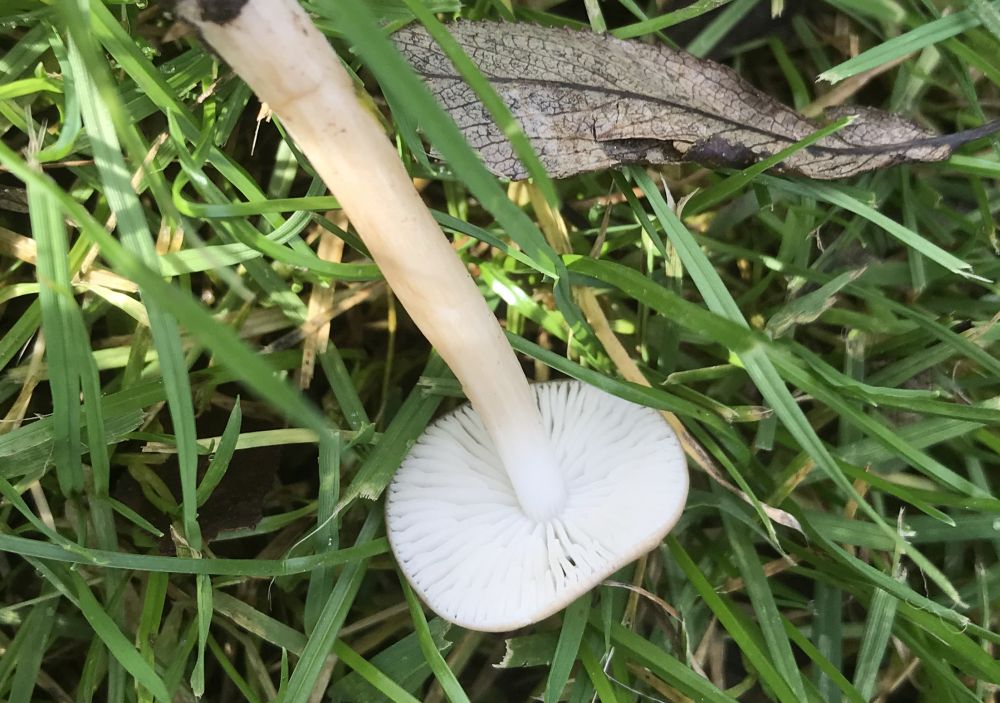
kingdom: Fungi
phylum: Basidiomycota
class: Agaricomycetes
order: Agaricales
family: Physalacriaceae
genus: Hymenopellis
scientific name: Hymenopellis radicata
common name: almindelig pælerodshat
